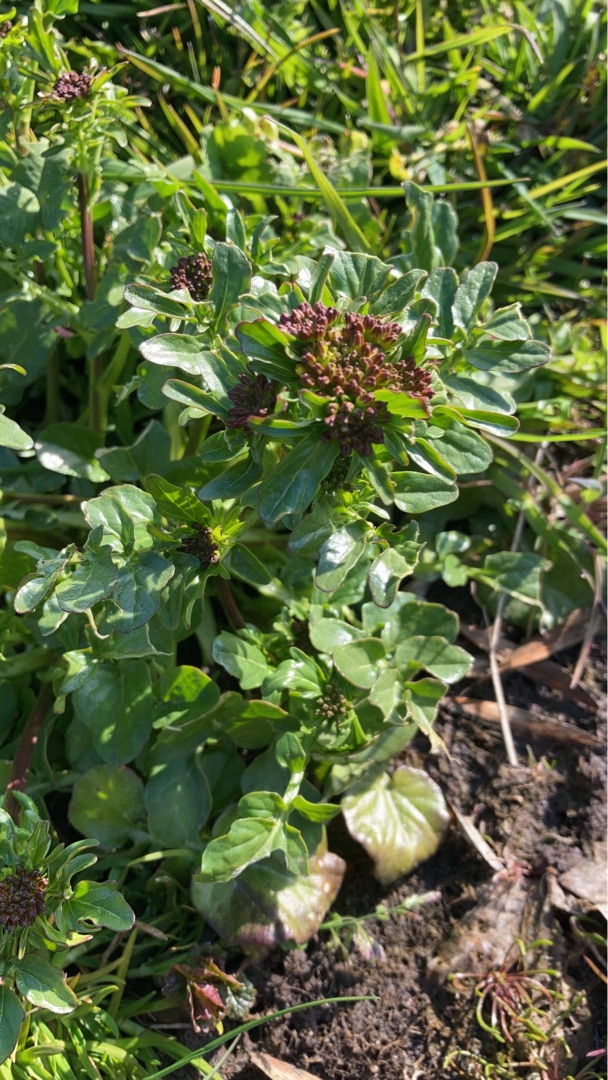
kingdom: Plantae
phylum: Tracheophyta
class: Magnoliopsida
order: Brassicales
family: Brassicaceae
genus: Barbarea
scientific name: Barbarea intermedia
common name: Randhåret vinterkarse
